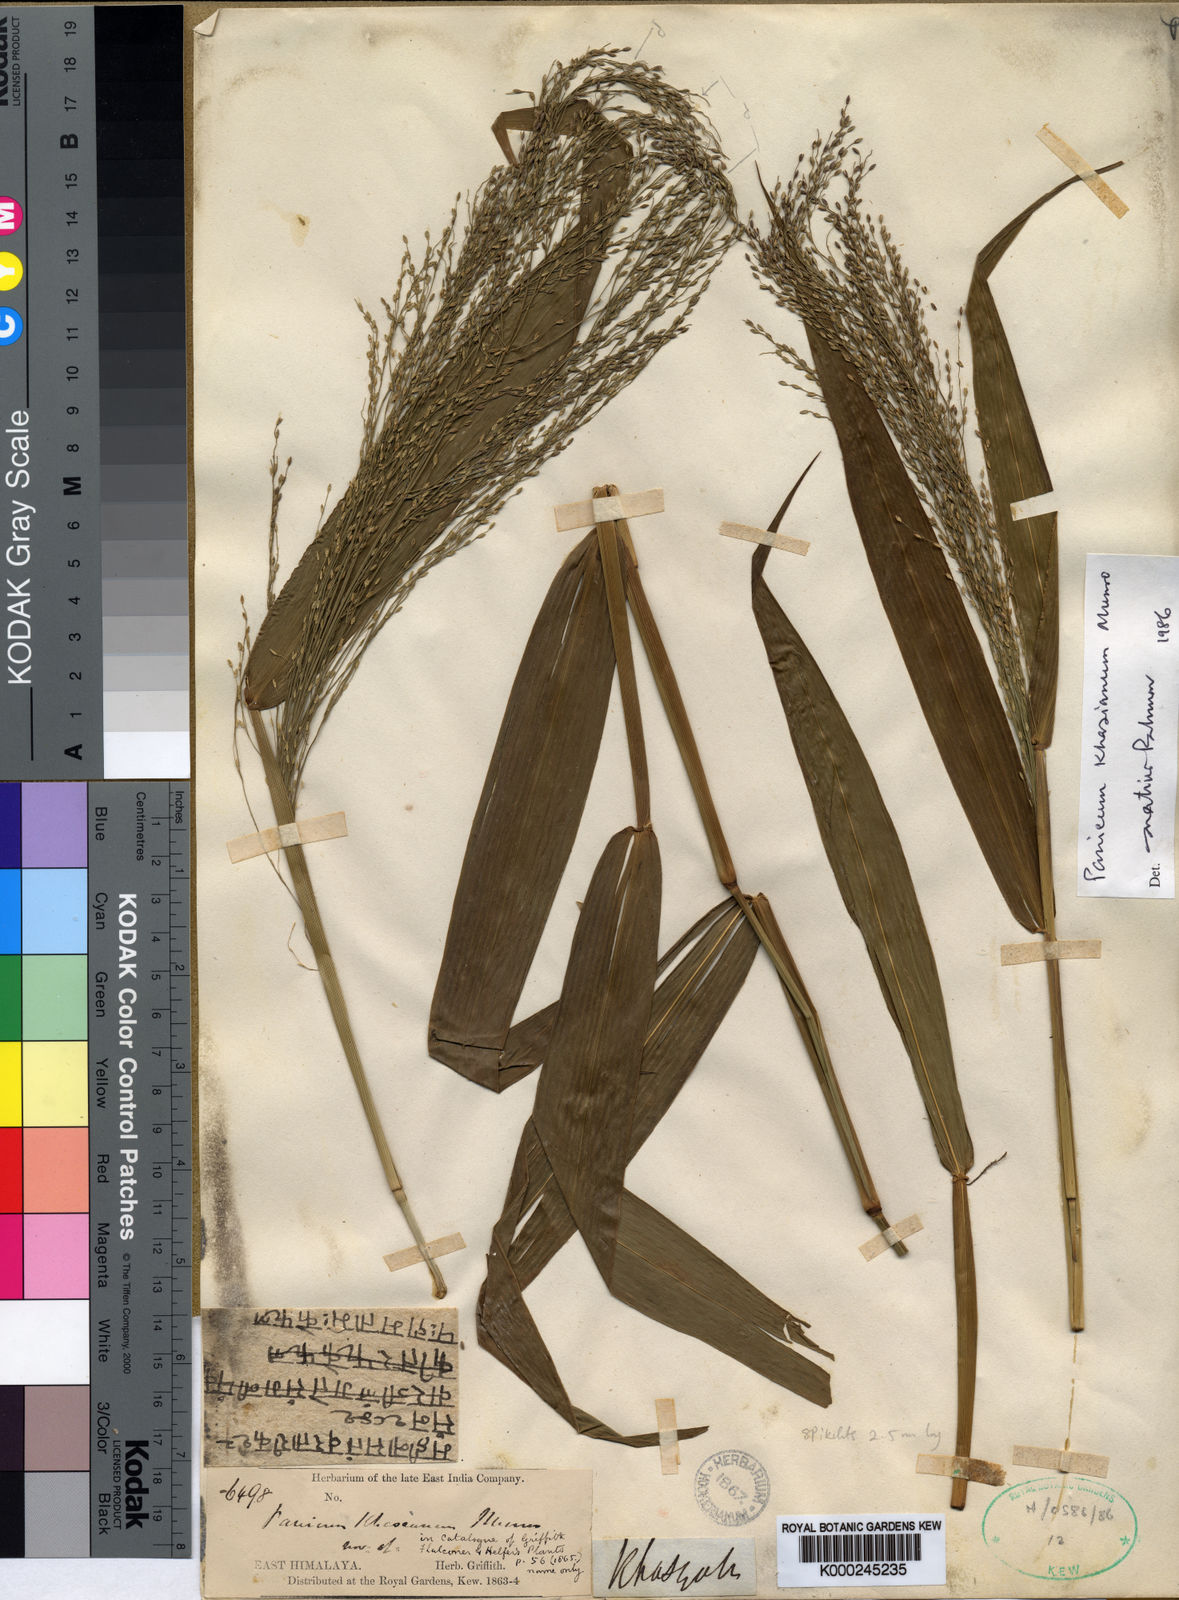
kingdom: Plantae
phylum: Tracheophyta
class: Liliopsida
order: Poales
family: Poaceae
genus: Panicum
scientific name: Panicum
